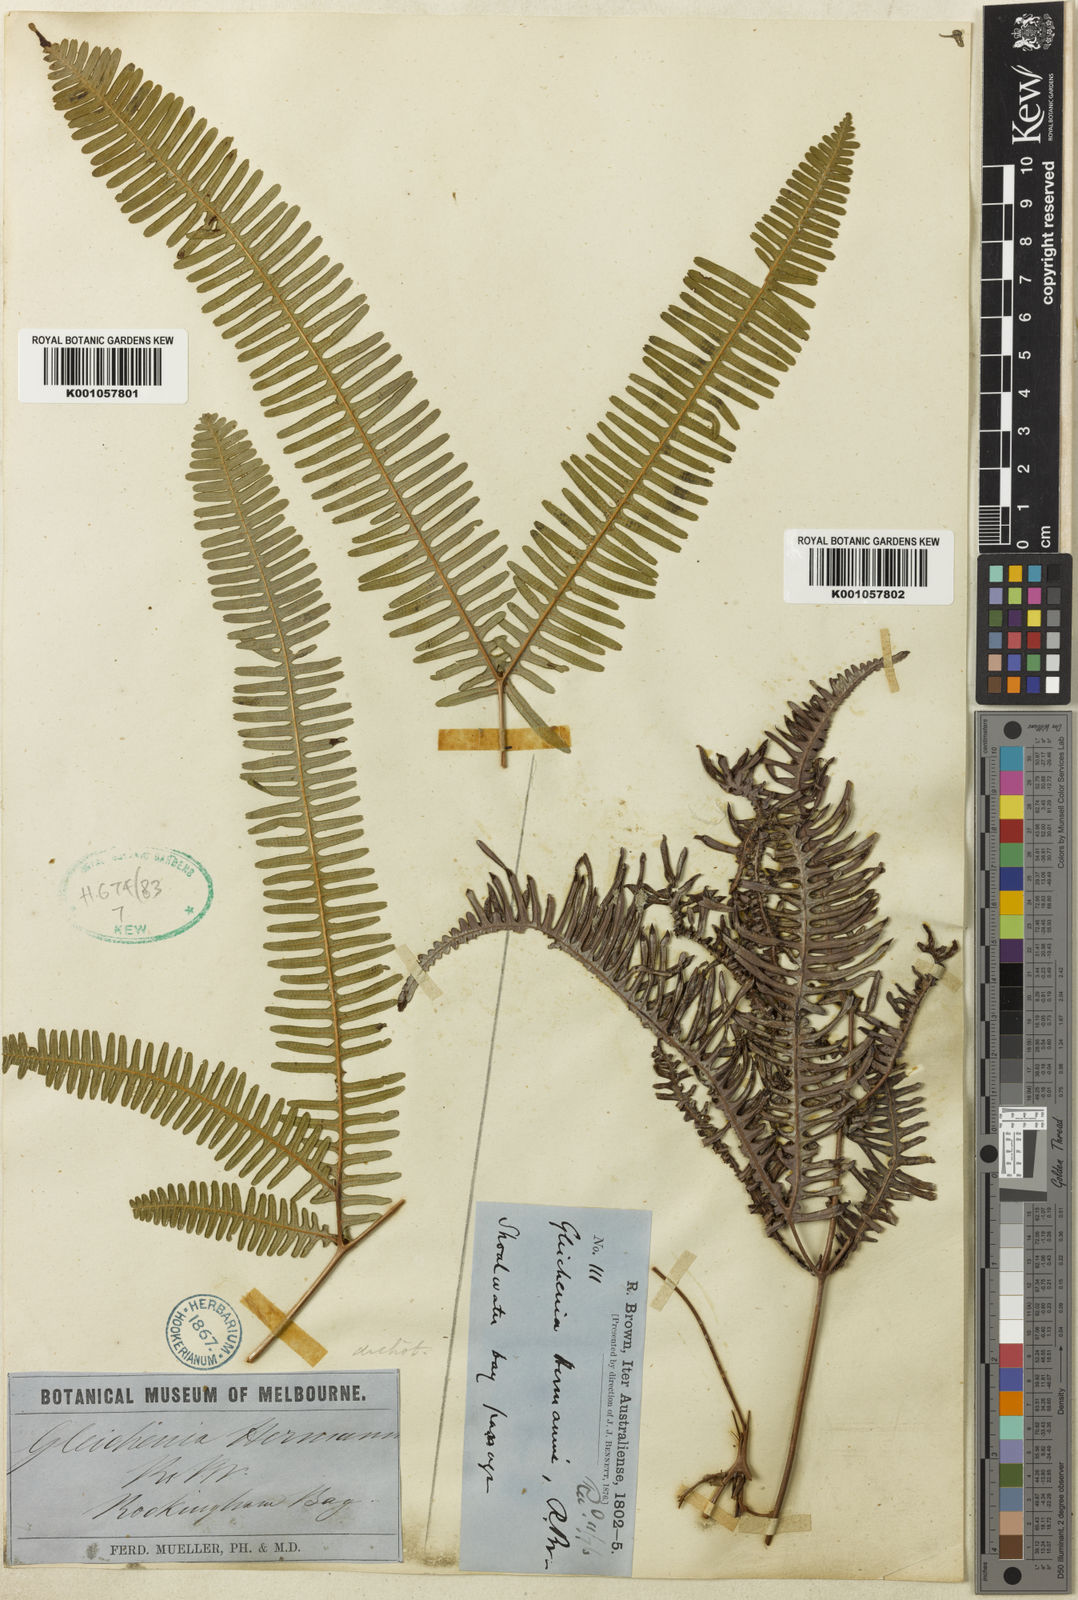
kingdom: Plantae
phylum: Tracheophyta
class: Polypodiopsida
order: Gleicheniales
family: Gleicheniaceae
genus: Dicranopteris
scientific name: Dicranopteris linearis
